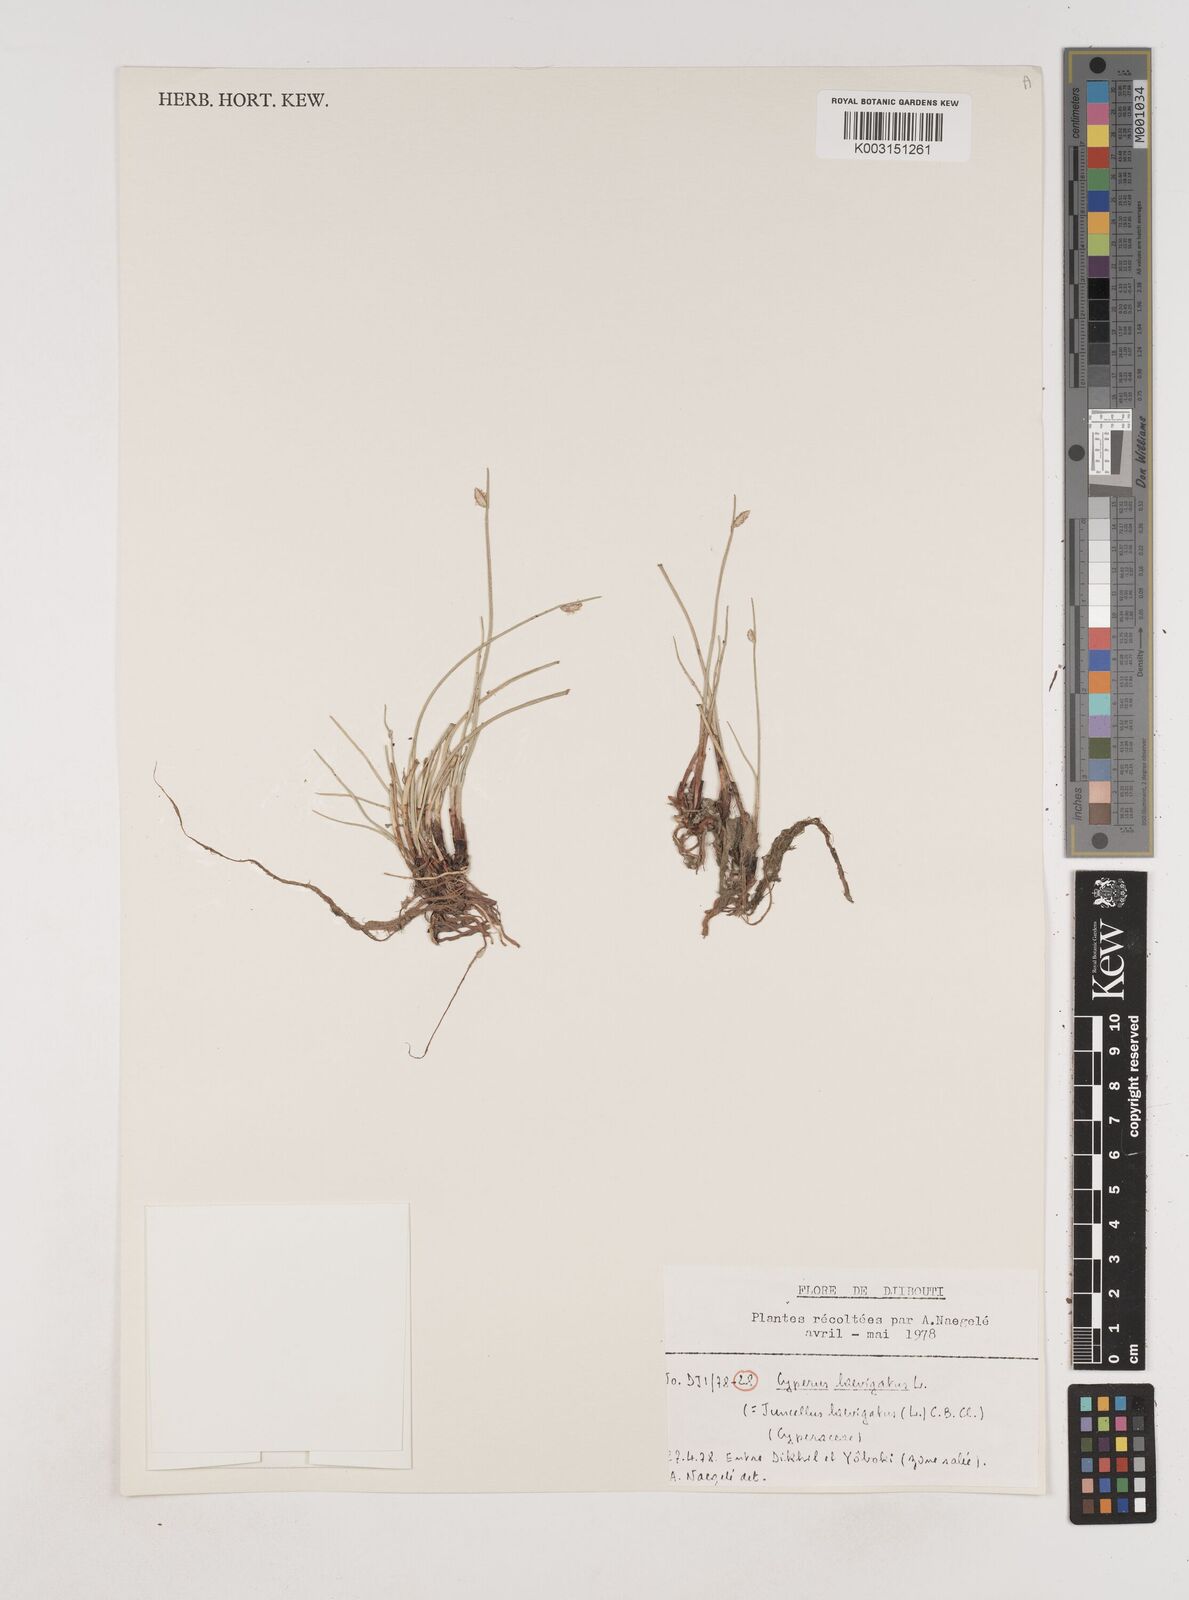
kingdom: Plantae
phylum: Tracheophyta
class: Liliopsida
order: Poales
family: Cyperaceae
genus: Cyperus
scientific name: Cyperus laevigatus
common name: Smooth flat sedge
